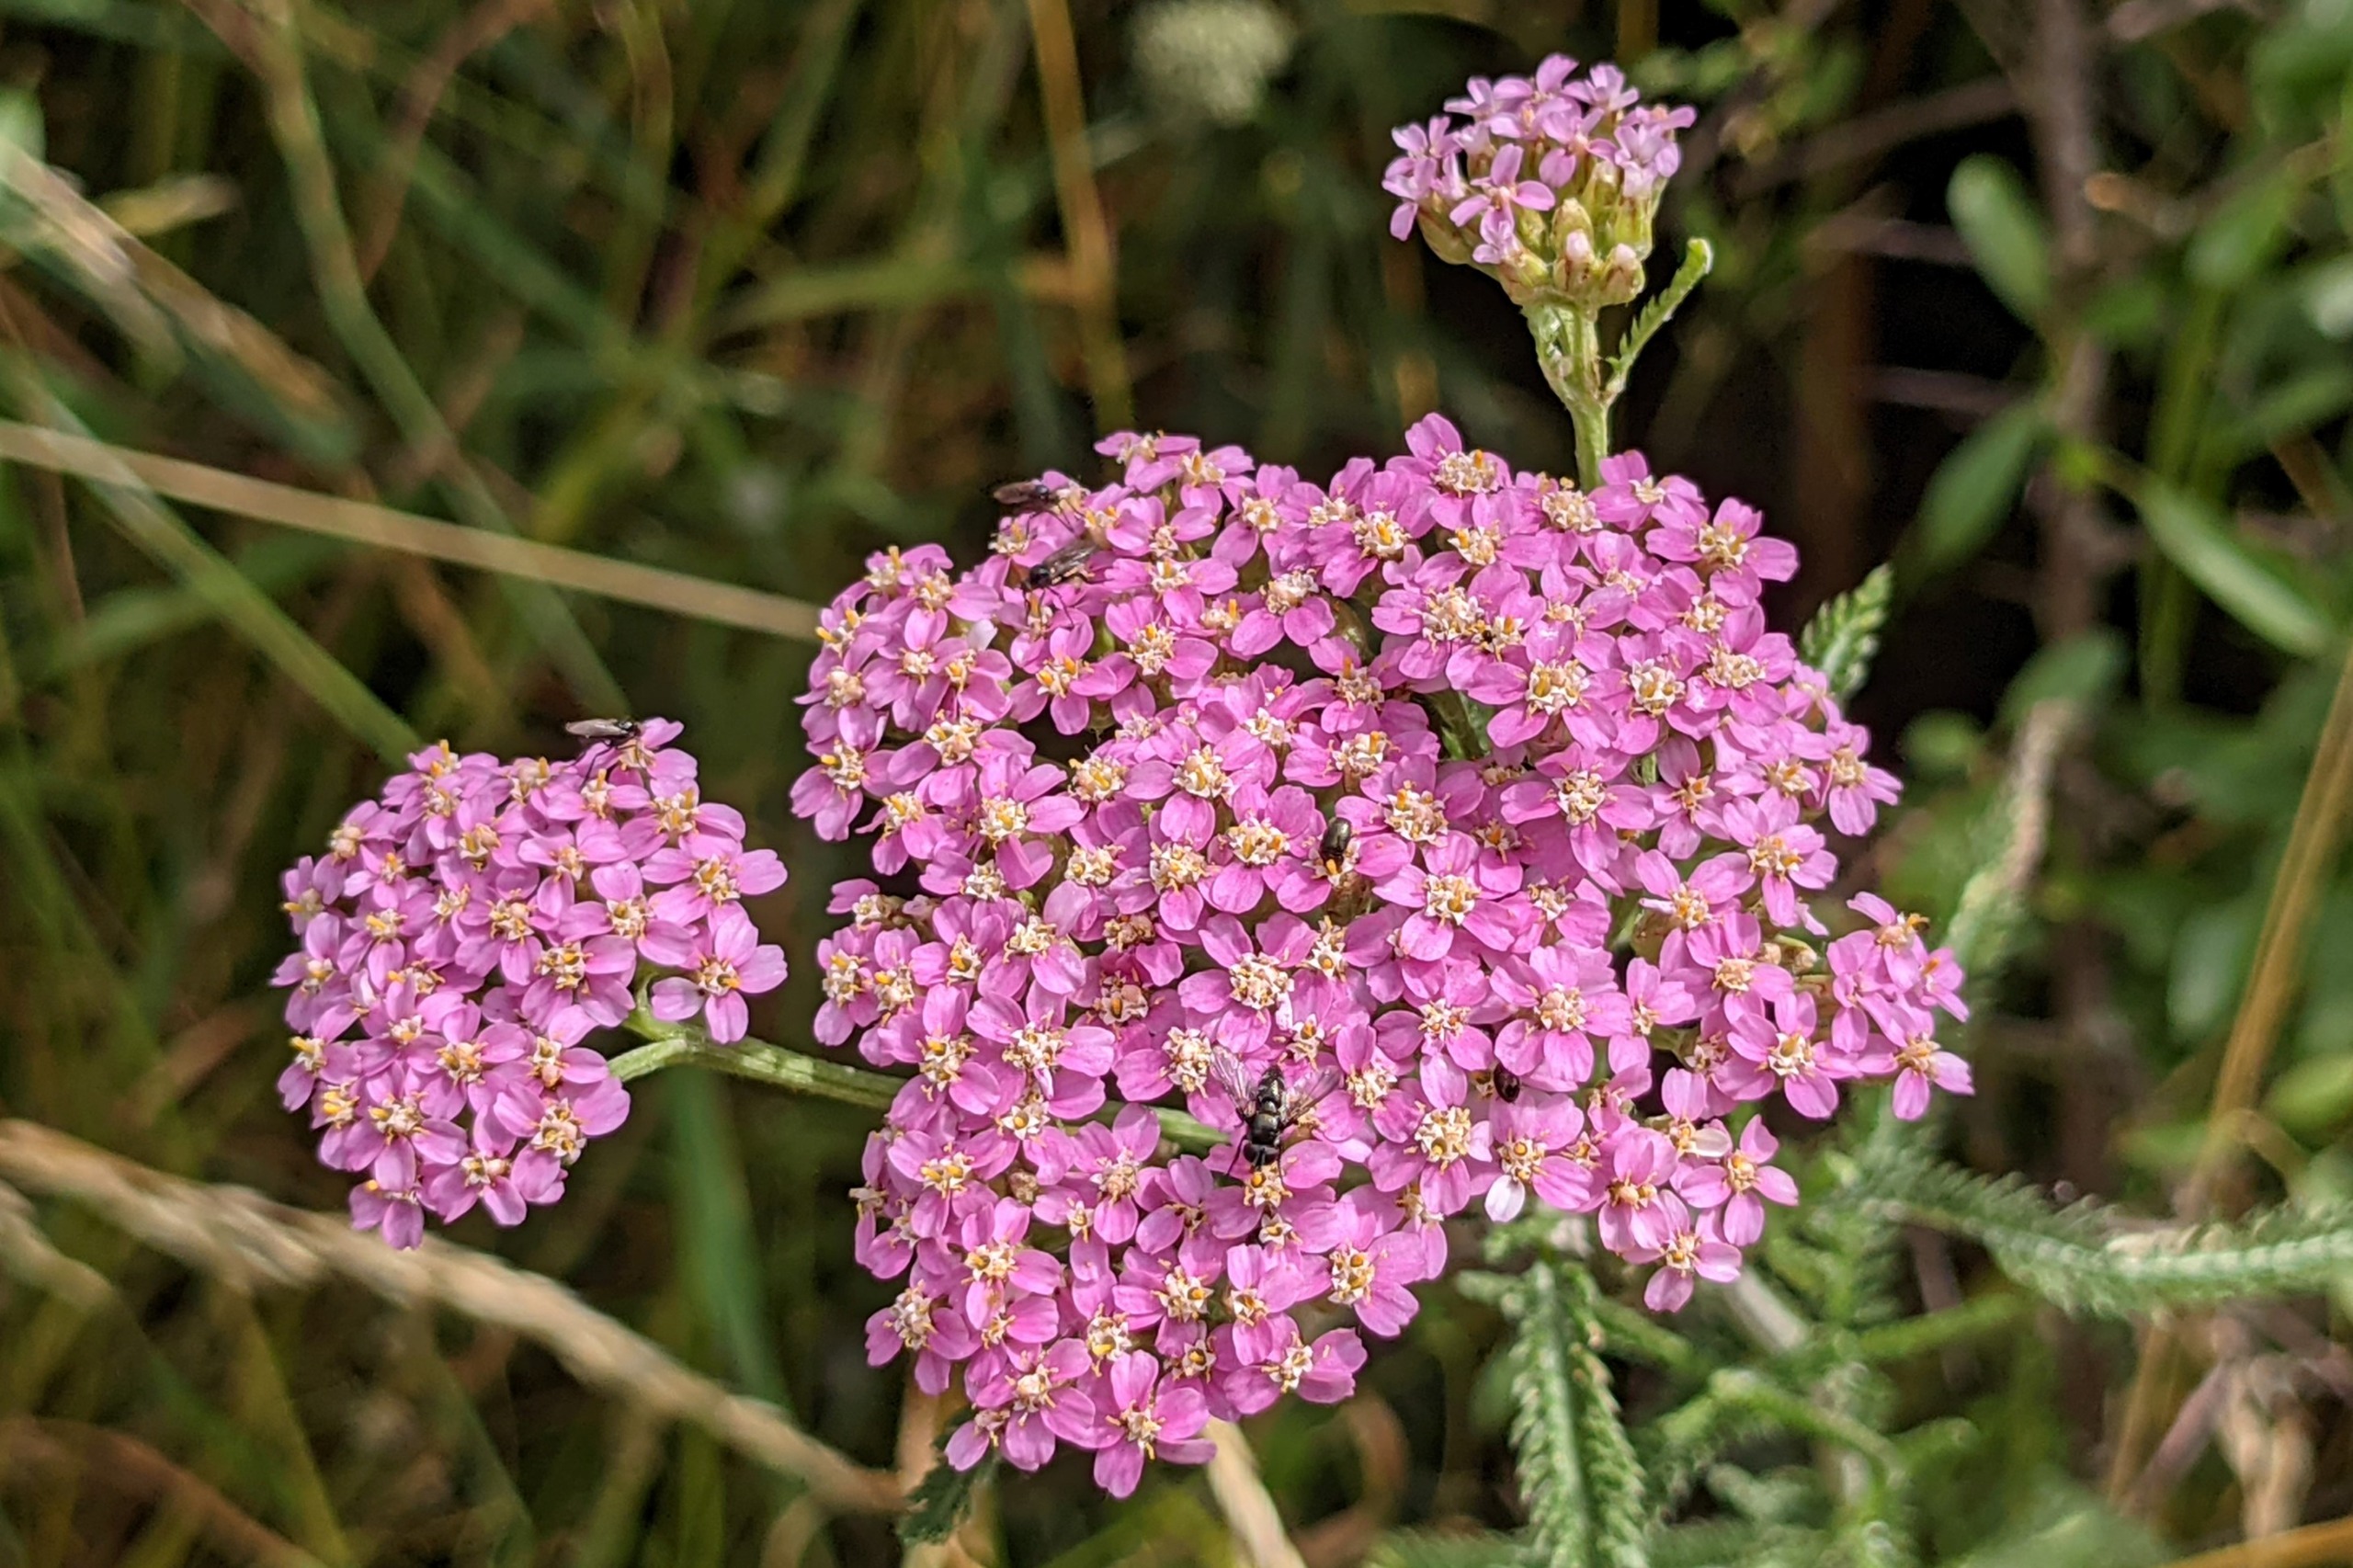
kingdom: Plantae
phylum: Tracheophyta
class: Magnoliopsida
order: Asterales
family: Asteraceae
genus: Achillea
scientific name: Achillea millefolium
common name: Almindelig røllike
